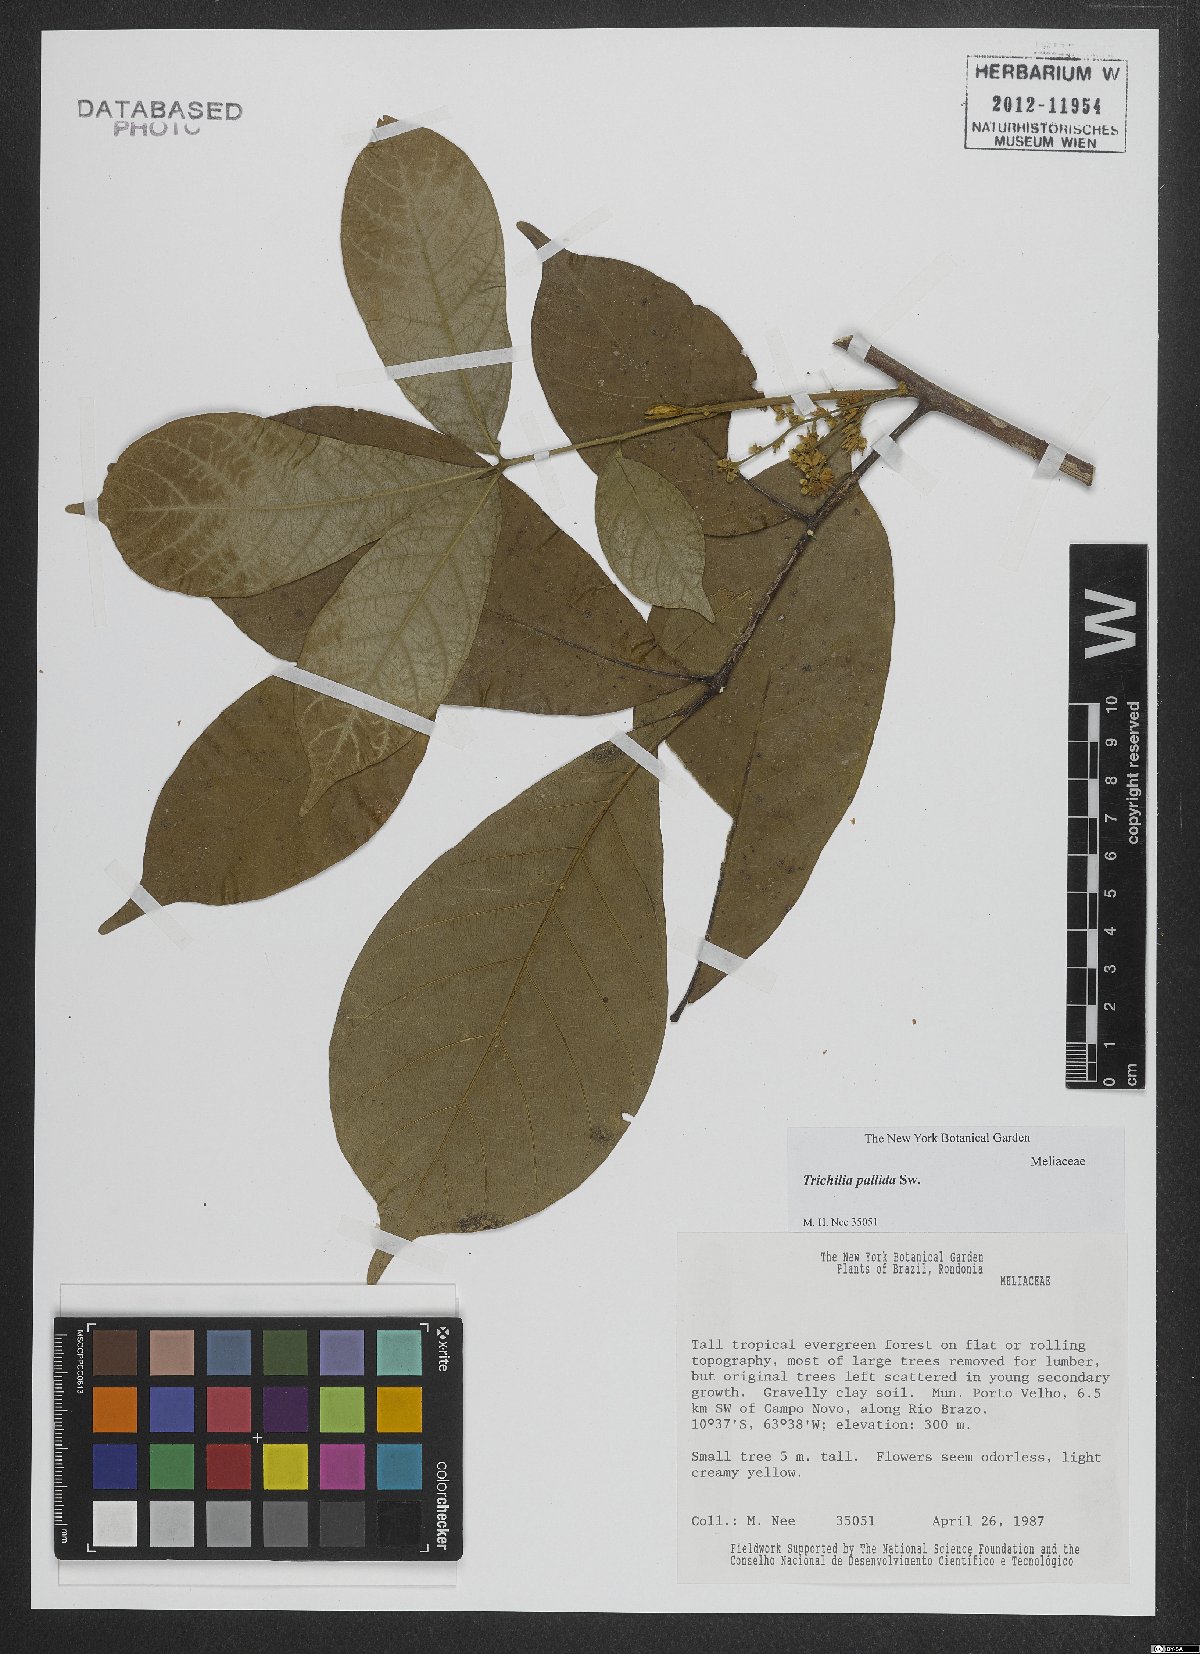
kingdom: Plantae
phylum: Tracheophyta
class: Magnoliopsida
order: Sapindales
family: Meliaceae
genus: Trichilia
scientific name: Trichilia pallida
